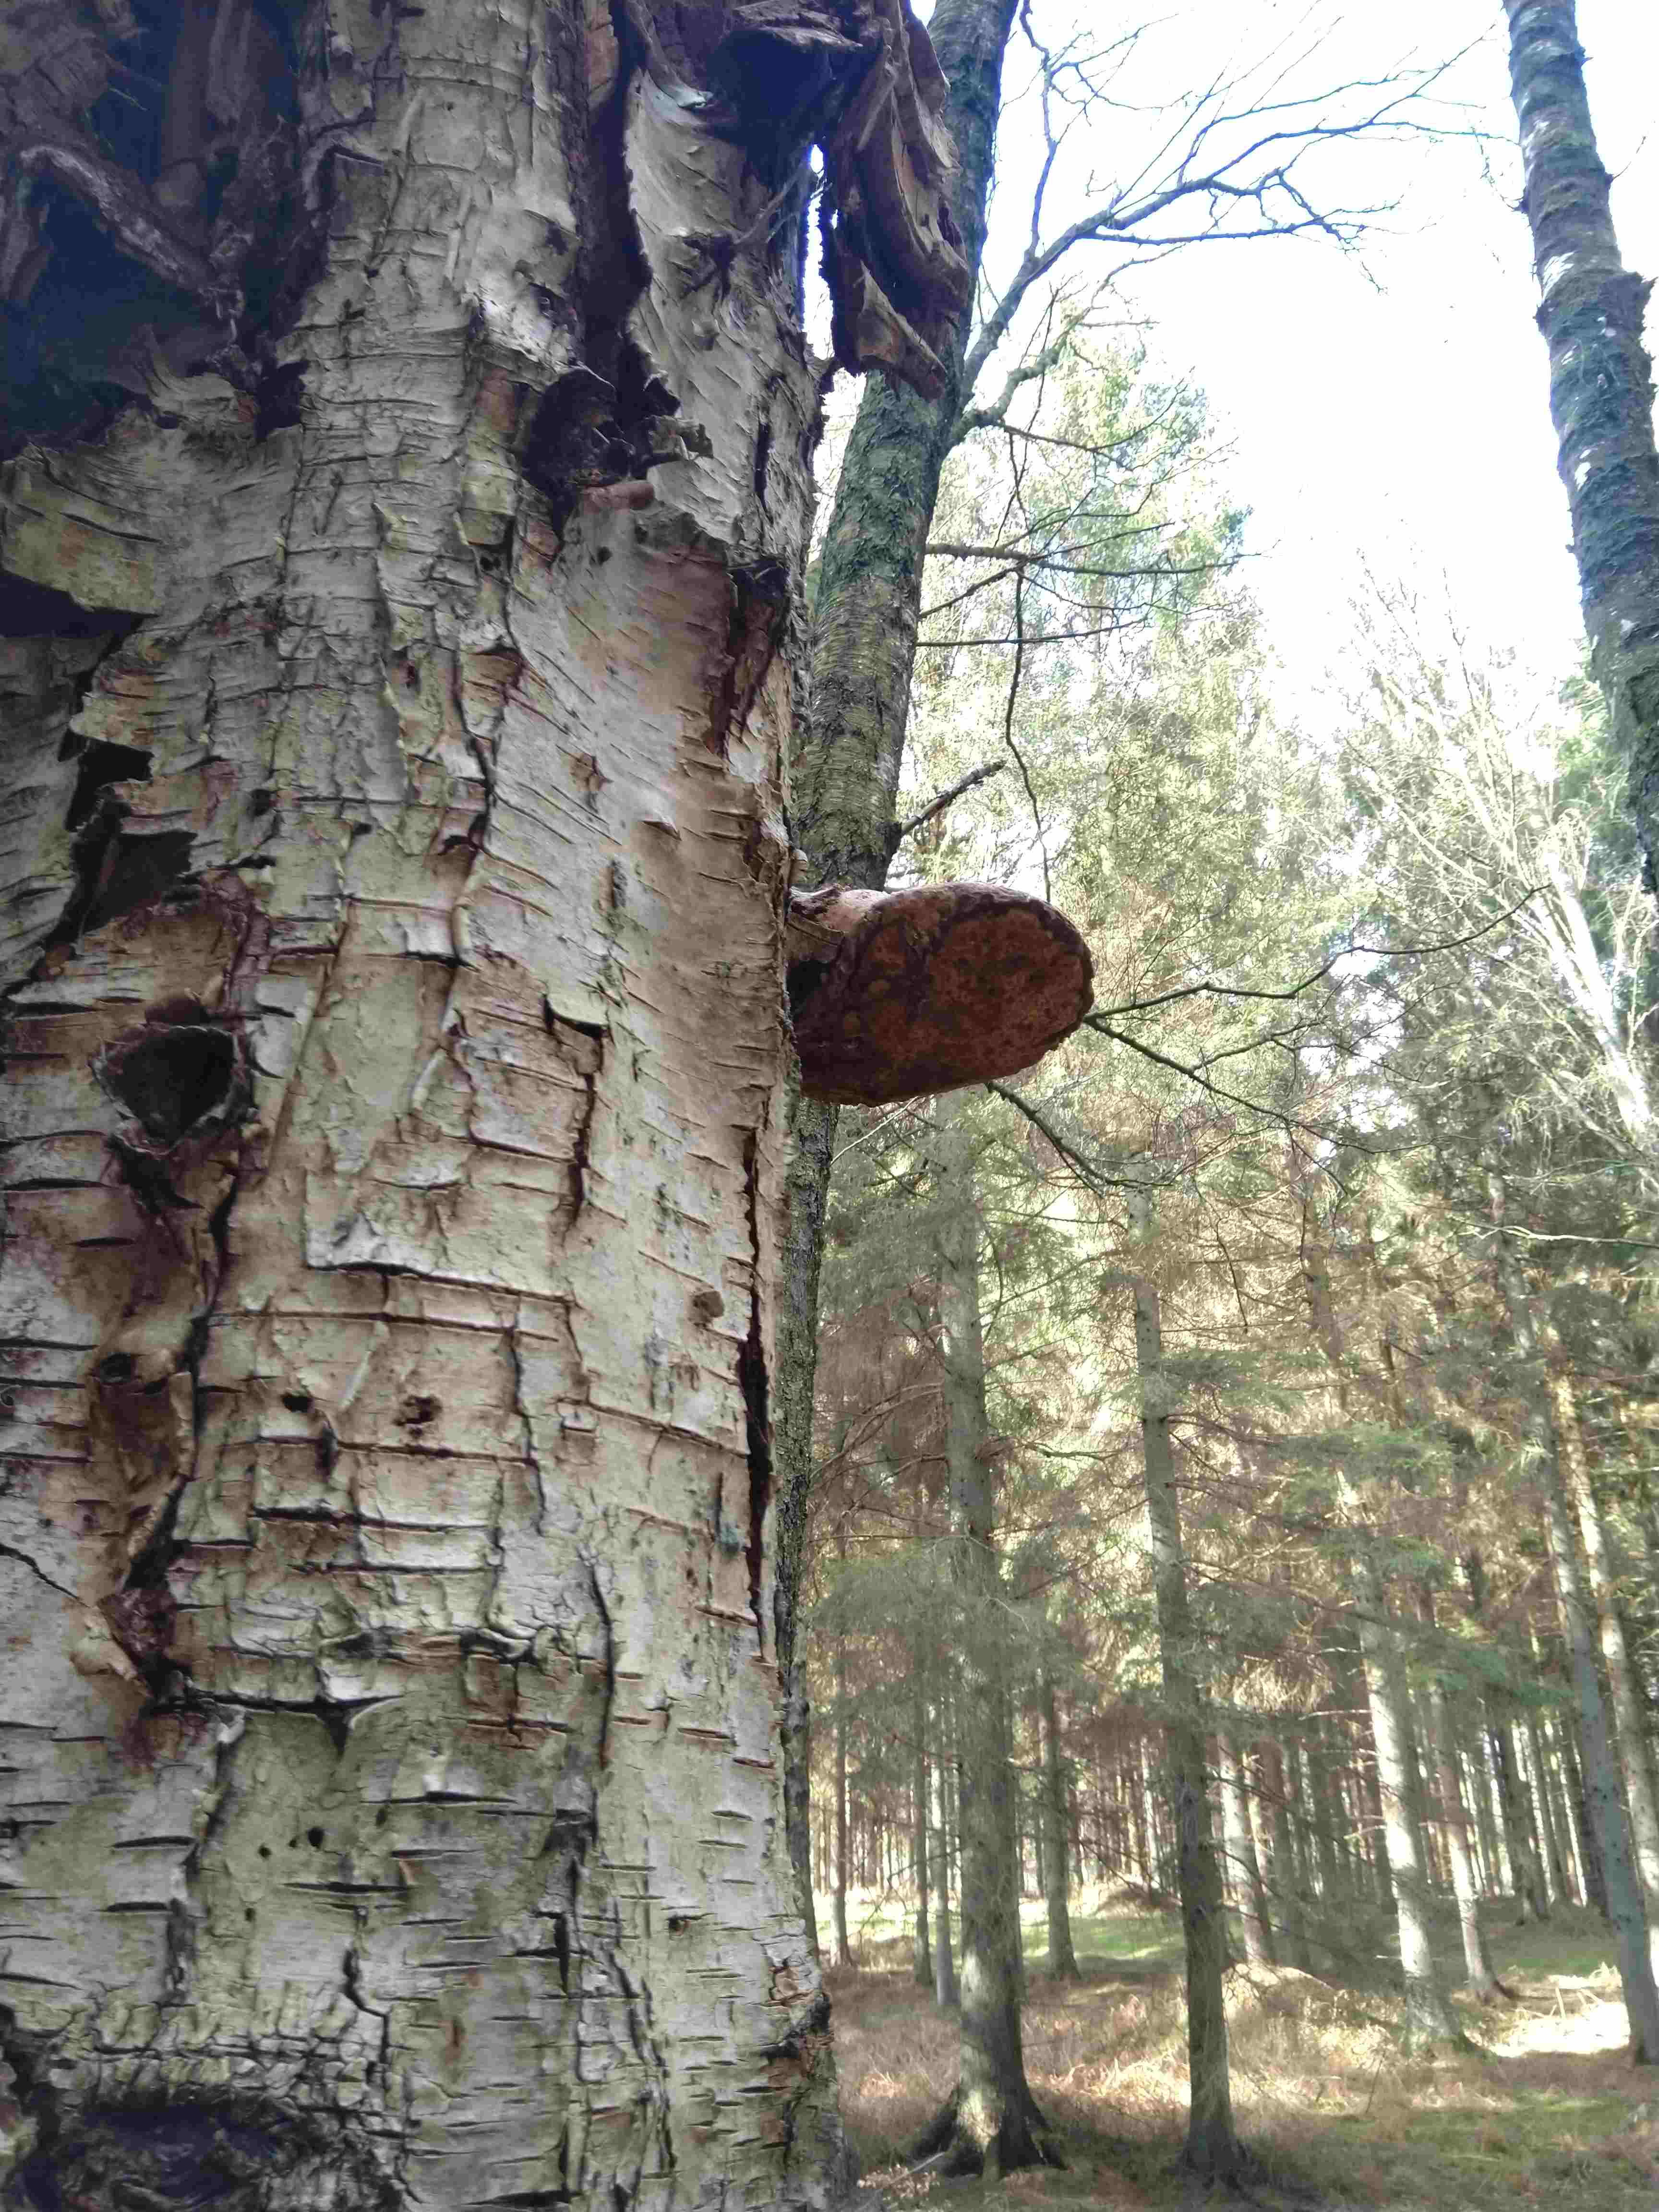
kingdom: Fungi
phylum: Basidiomycota
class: Agaricomycetes
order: Polyporales
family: Fomitopsidaceae
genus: Fomitopsis
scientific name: Fomitopsis betulina
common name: birkeporesvamp
